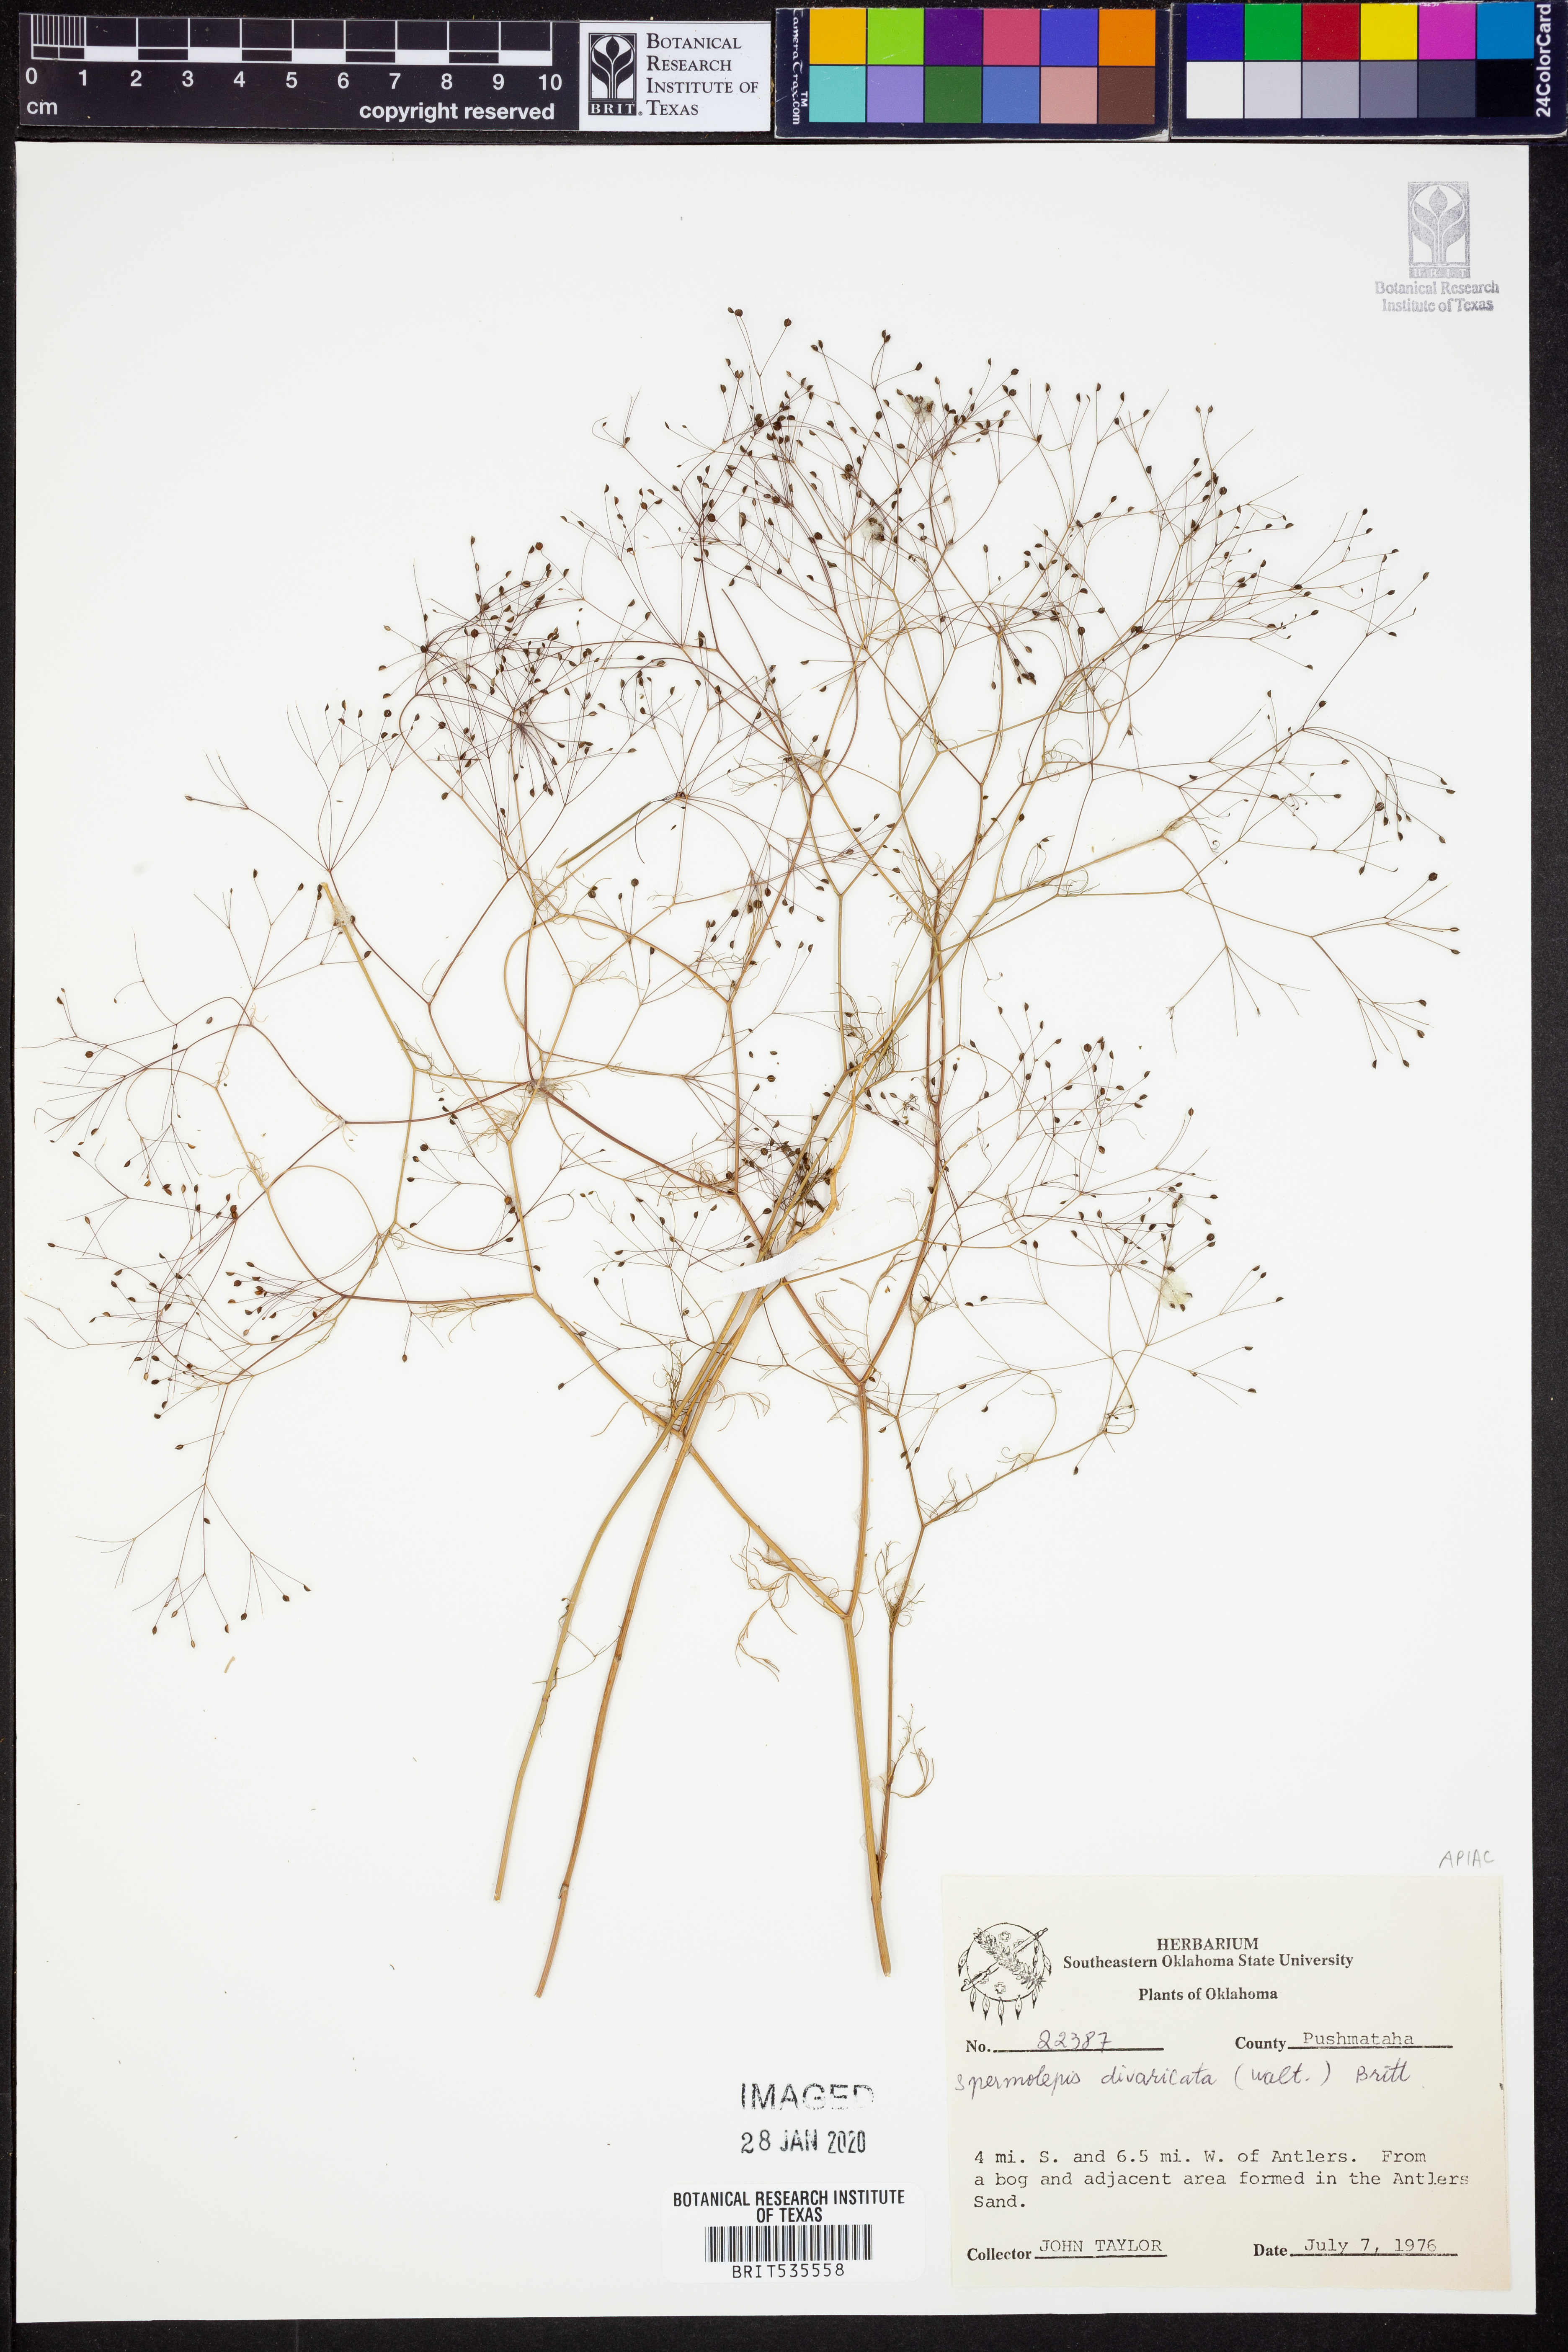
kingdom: Plantae
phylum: Tracheophyta
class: Magnoliopsida
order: Apiales
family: Apiaceae
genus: Spermolepis
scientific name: Spermolepis divaricata
